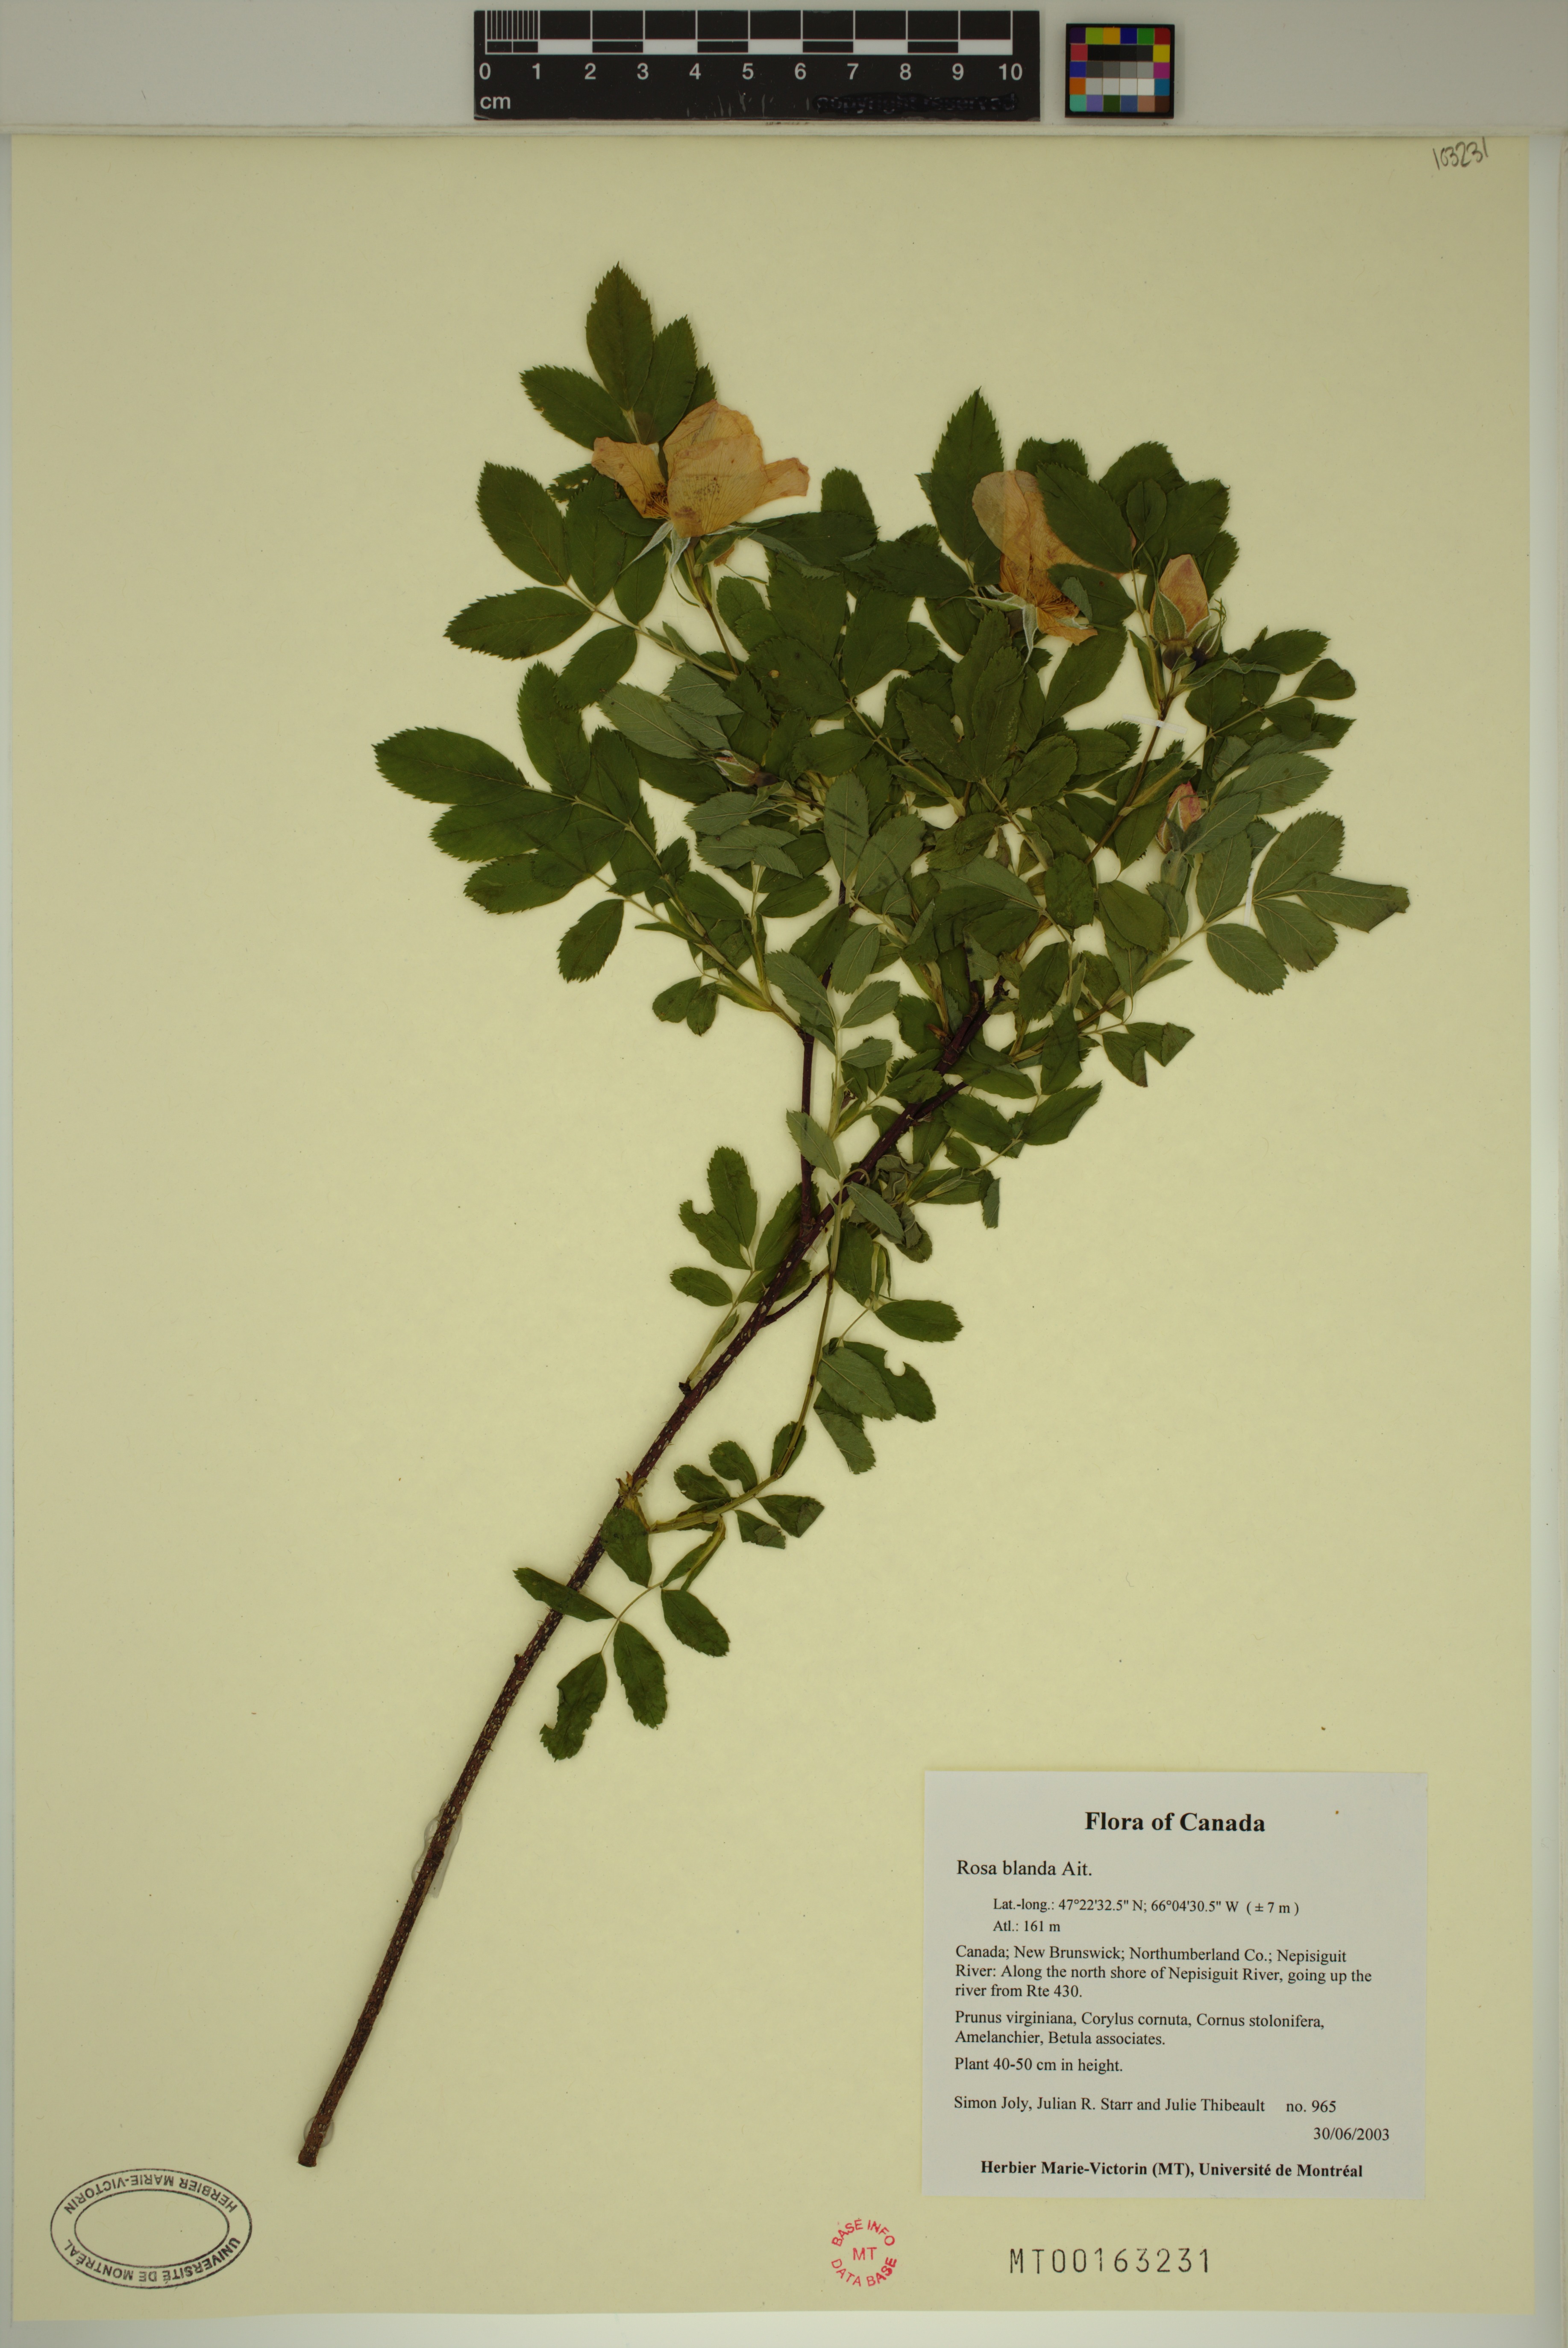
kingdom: Plantae
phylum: Tracheophyta
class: Magnoliopsida
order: Rosales
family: Rosaceae
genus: Rosa
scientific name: Rosa blanda
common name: Smooth rose
